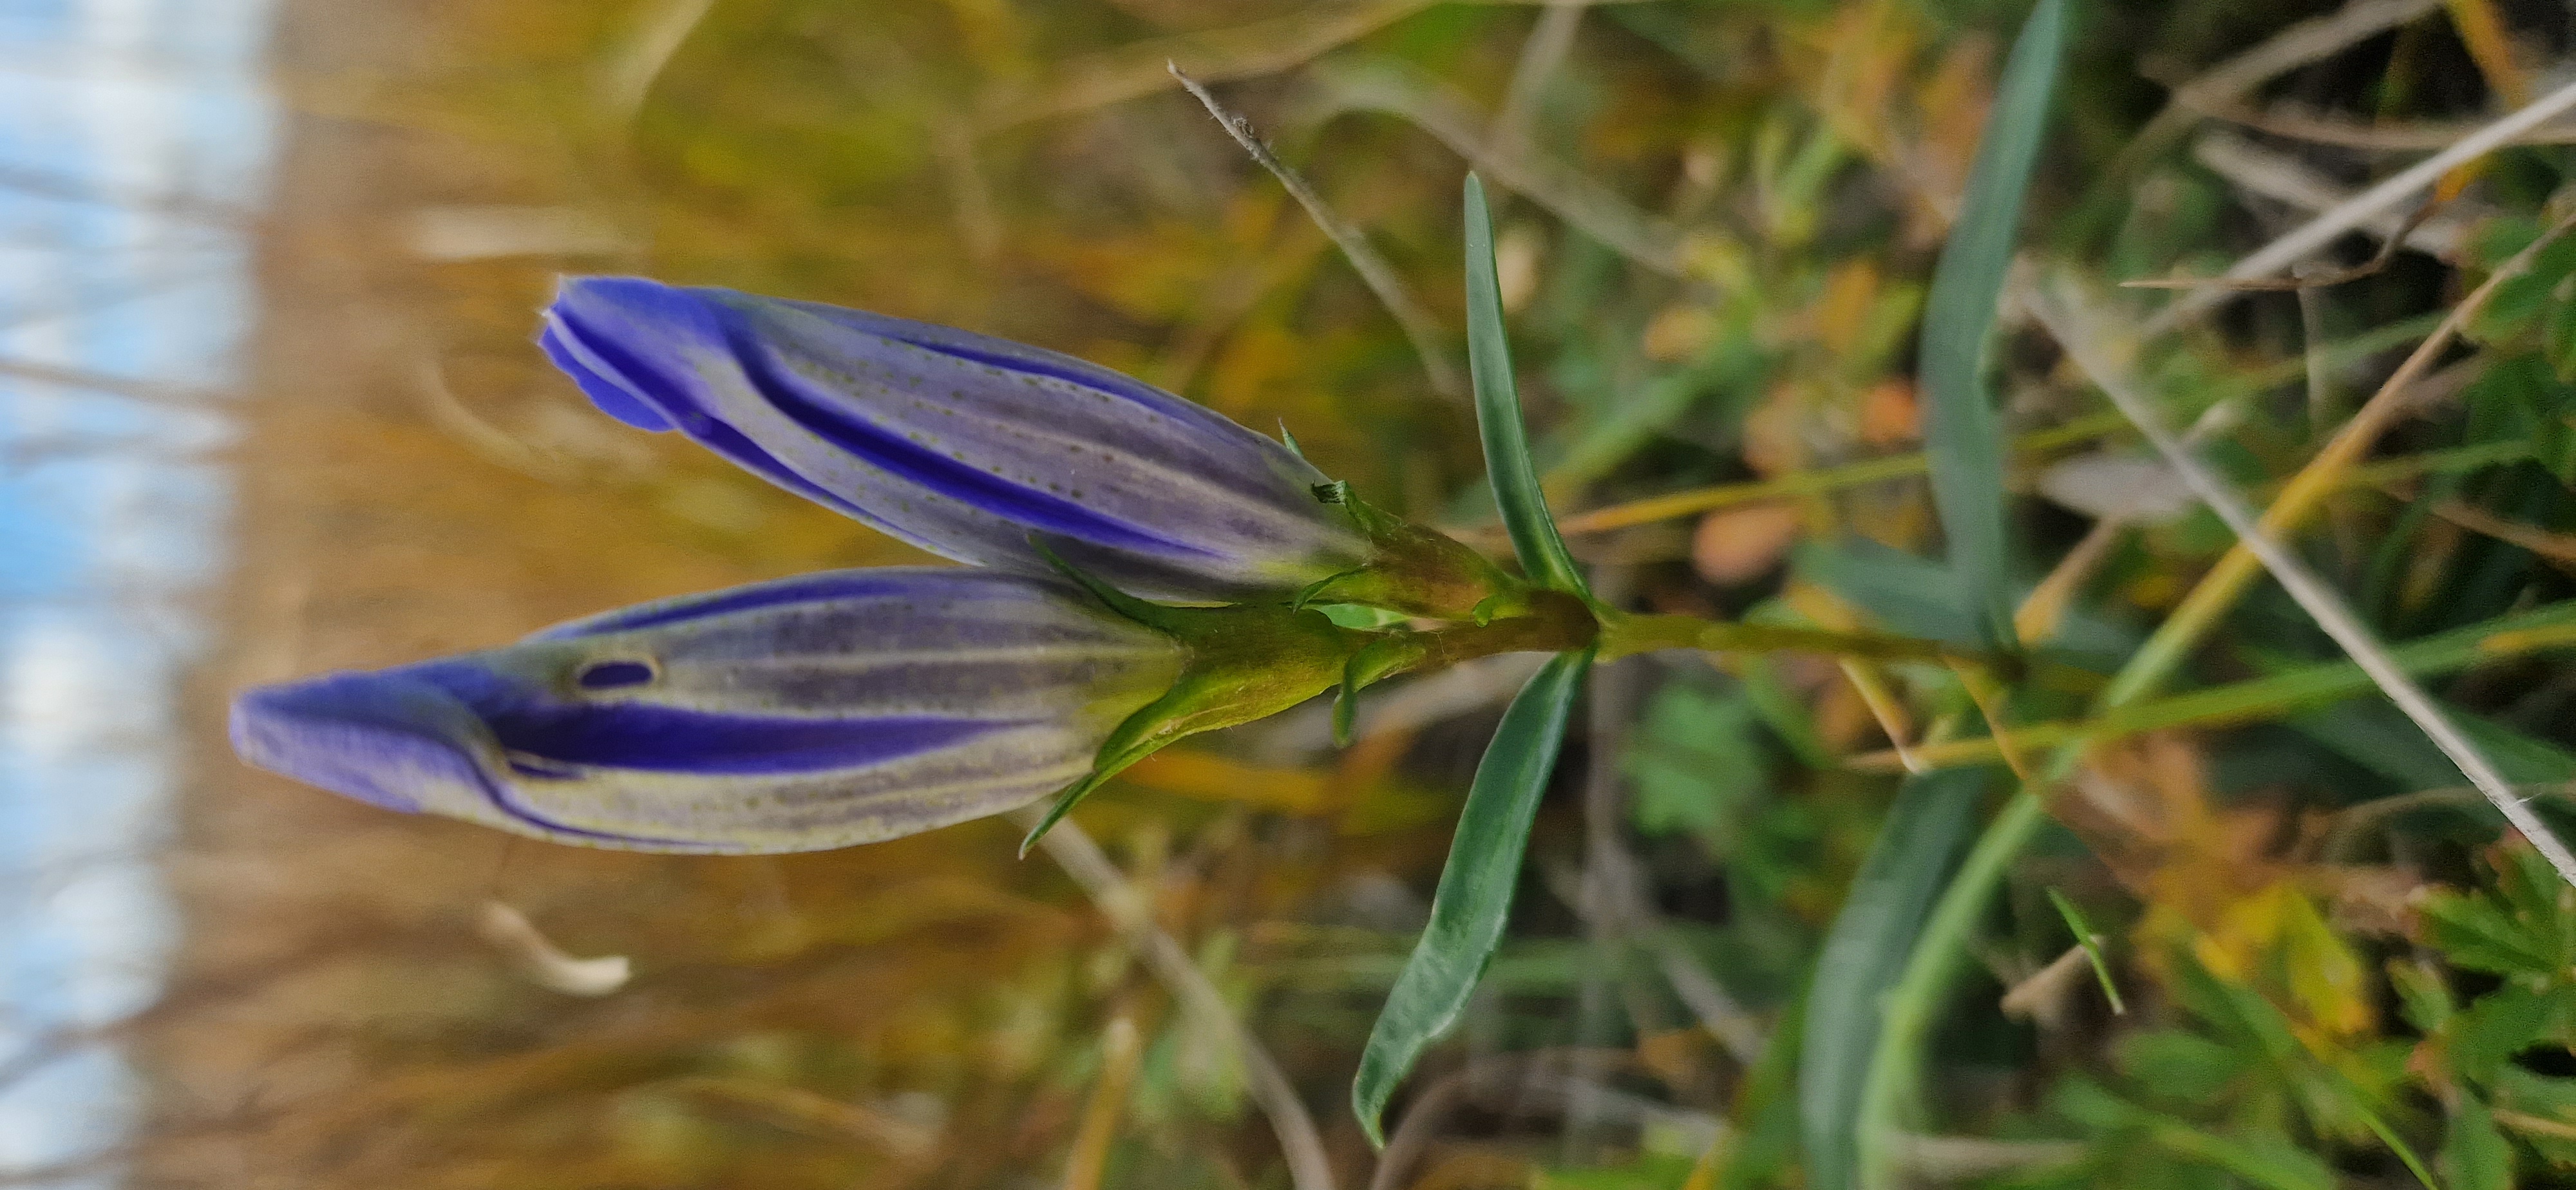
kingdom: Plantae
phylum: Tracheophyta
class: Magnoliopsida
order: Gentianales
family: Gentianaceae
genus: Gentiana
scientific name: Gentiana pneumonanthe
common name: Klokke-ensian
